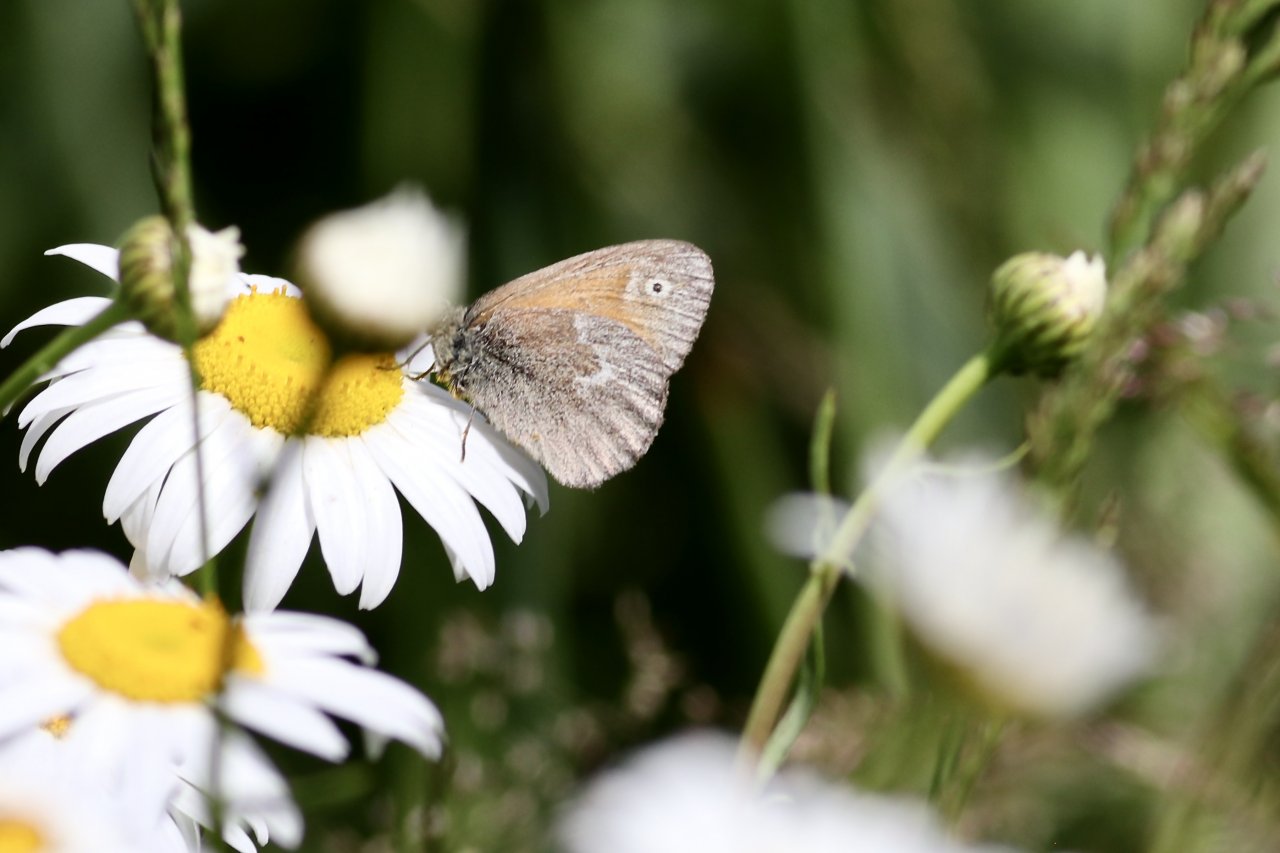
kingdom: Animalia
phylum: Arthropoda
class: Insecta
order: Lepidoptera
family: Nymphalidae
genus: Coenonympha
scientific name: Coenonympha tullia
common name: Large Heath
